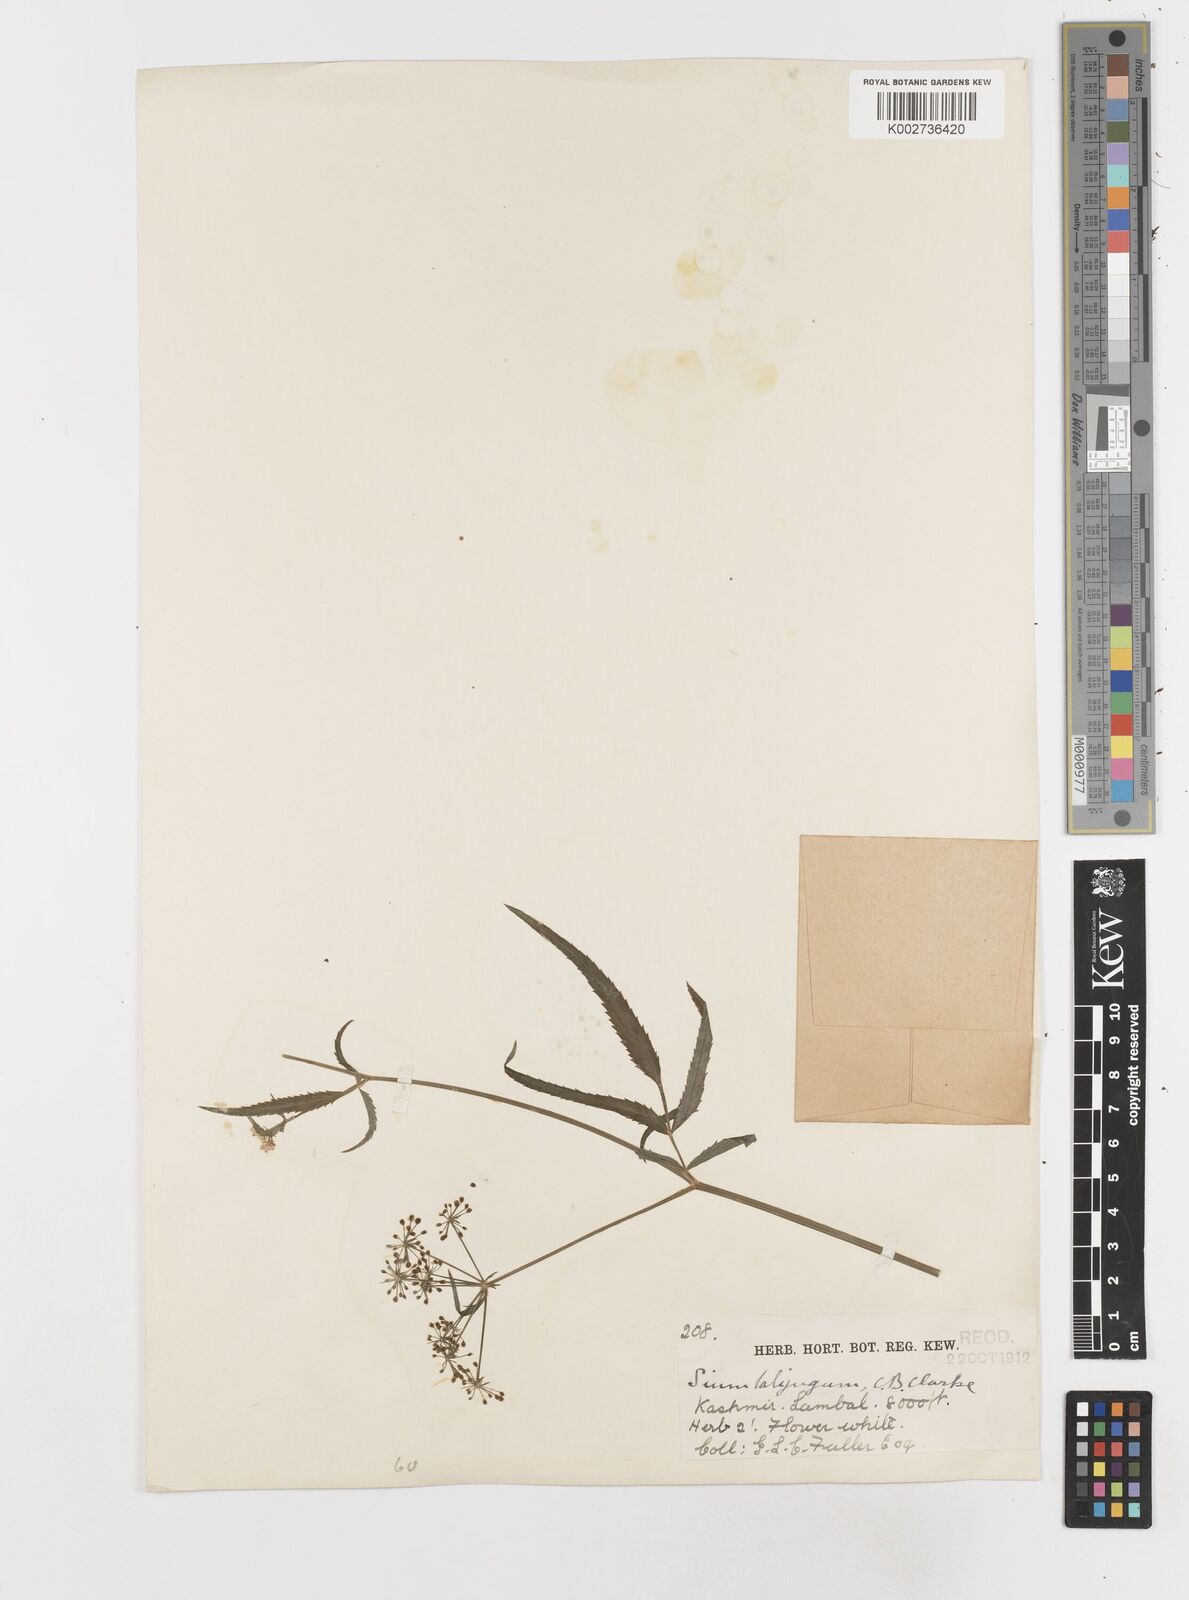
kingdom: Plantae
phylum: Tracheophyta
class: Magnoliopsida
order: Apiales
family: Apiaceae
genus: Sium
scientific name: Sium sisarum
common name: Skirret
